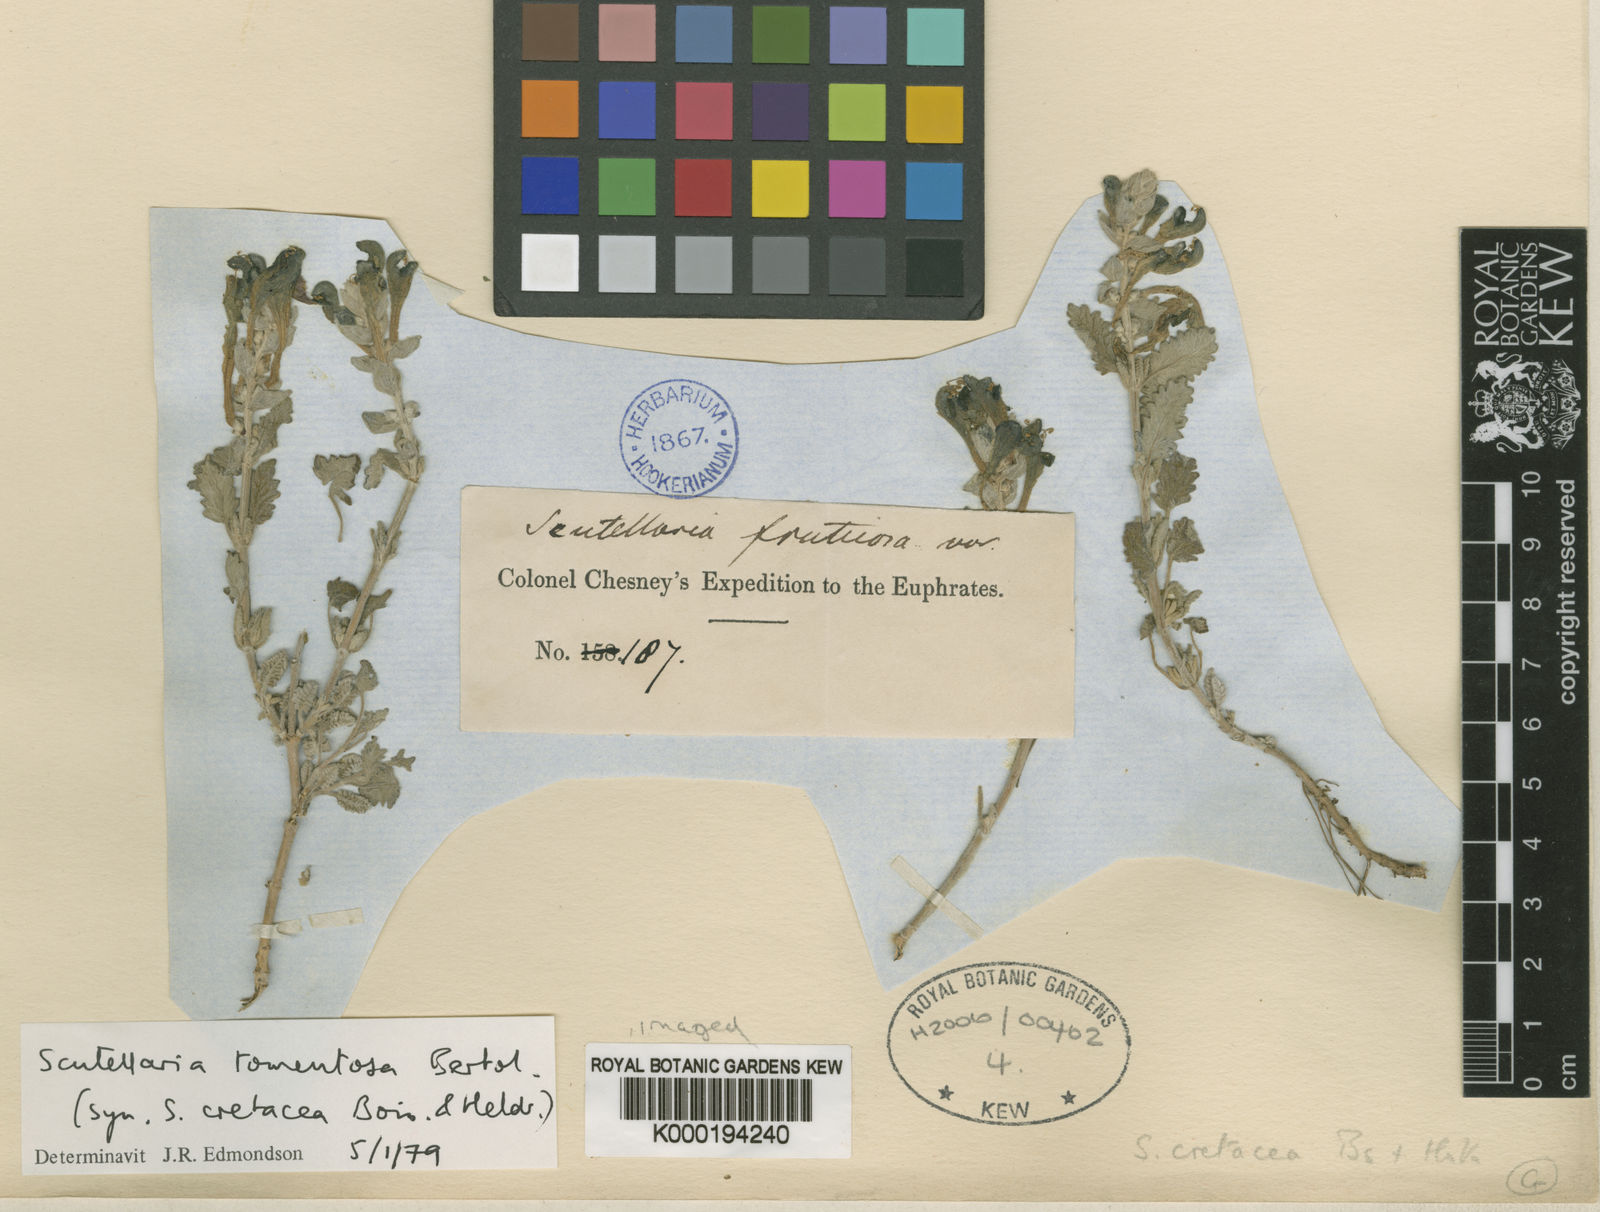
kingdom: Plantae
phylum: Tracheophyta
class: Magnoliopsida
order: Lamiales
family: Lamiaceae
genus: Scutellaria
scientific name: Scutellaria tomentosa
